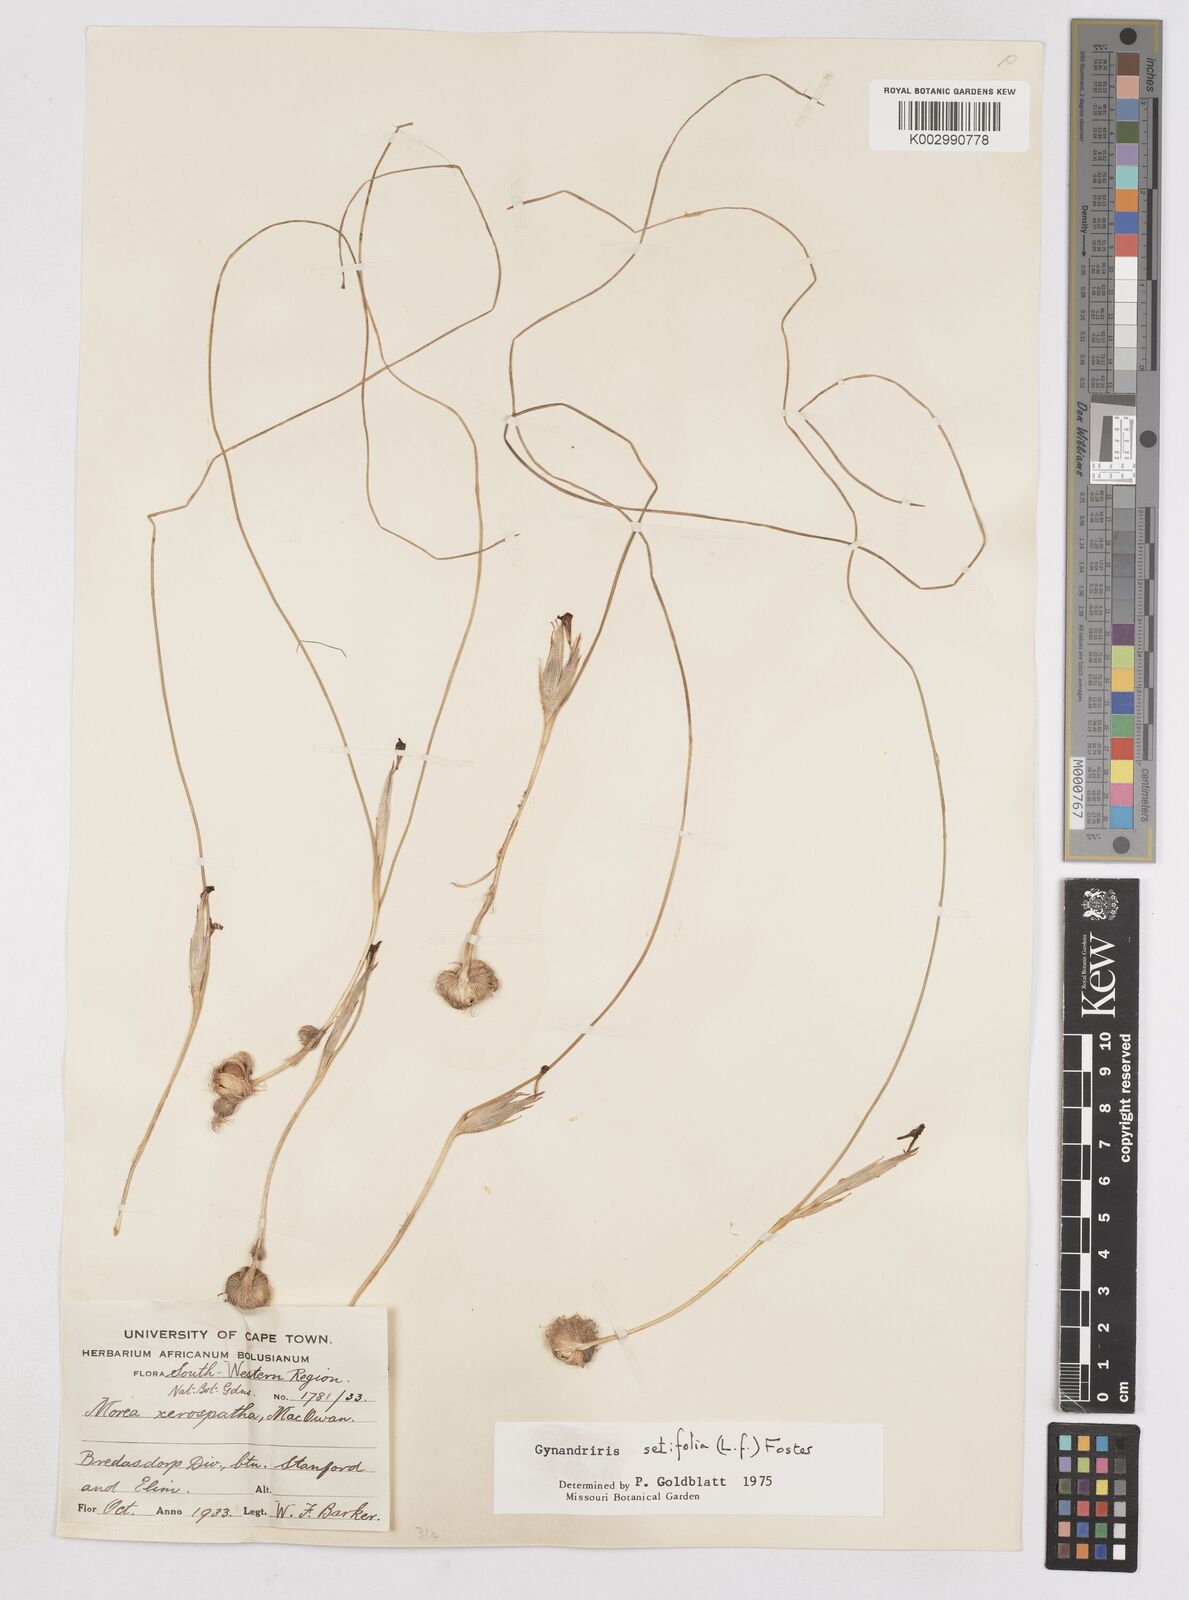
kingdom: Plantae
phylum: Tracheophyta
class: Liliopsida
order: Asparagales
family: Iridaceae
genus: Moraea
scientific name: Moraea setifolia
